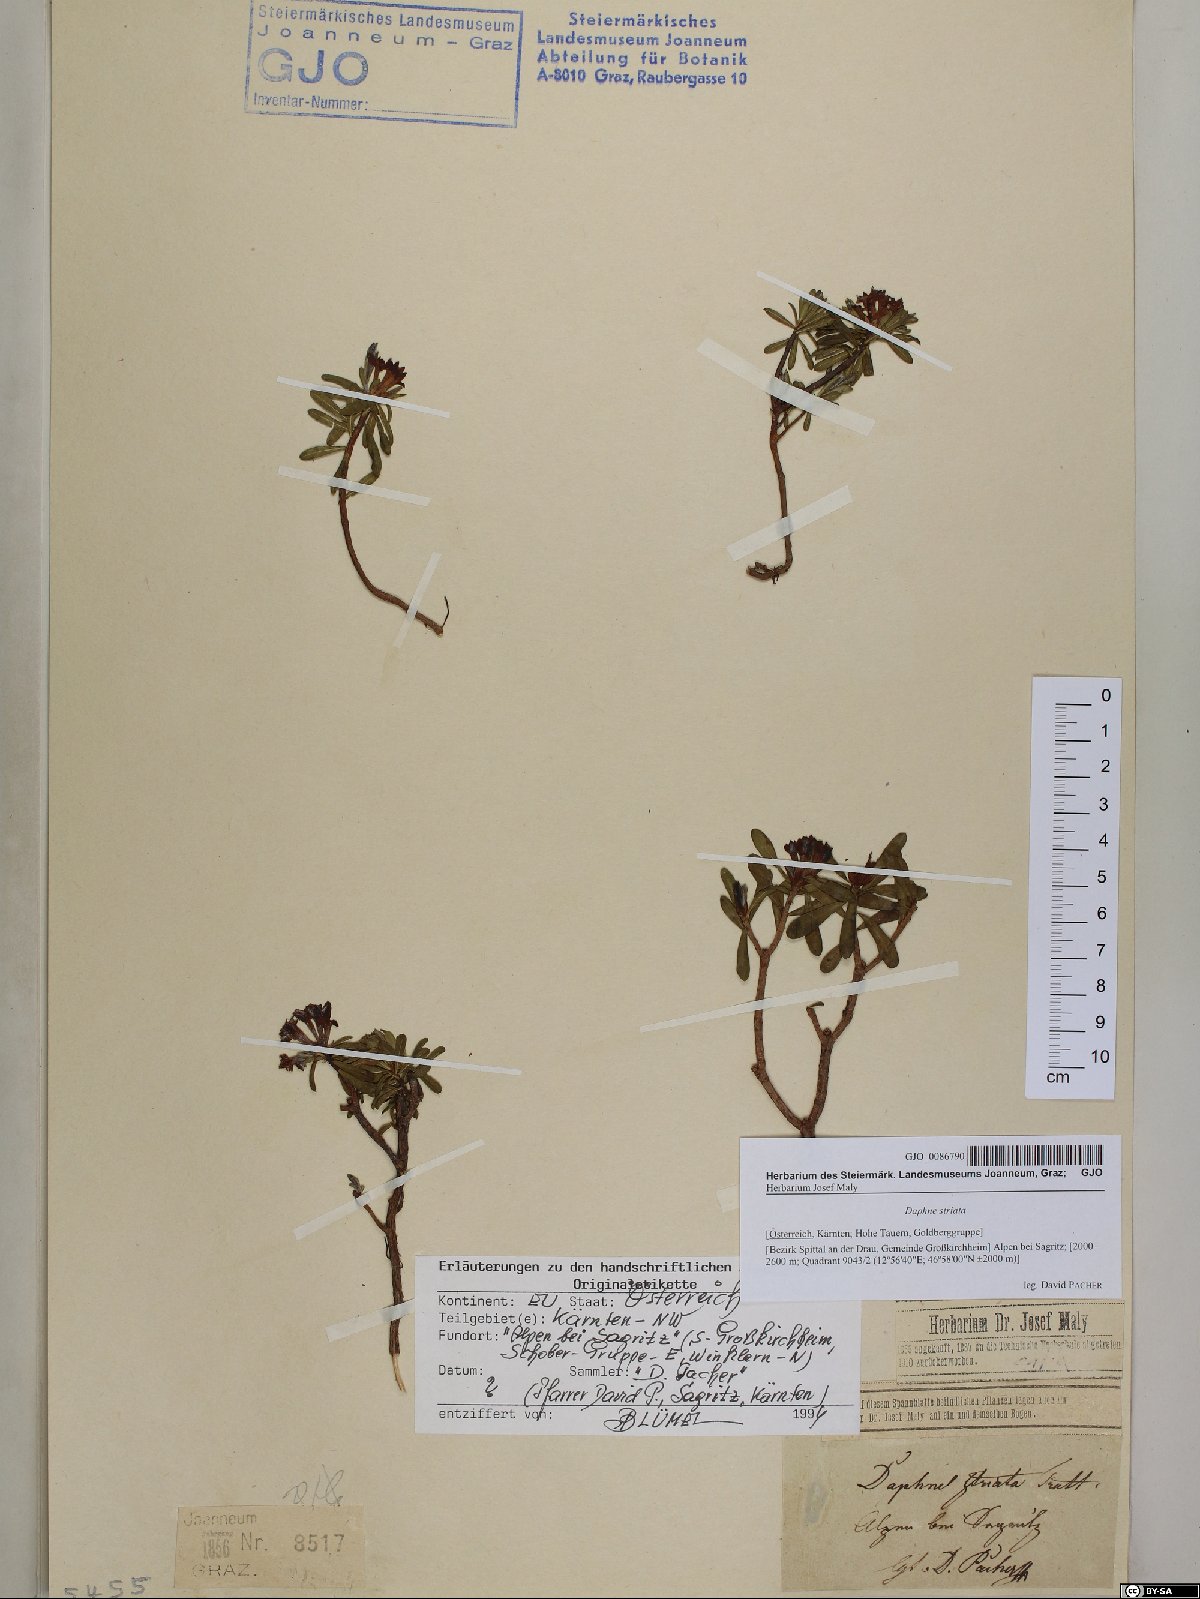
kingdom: Plantae
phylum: Tracheophyta
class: Magnoliopsida
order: Malvales
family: Thymelaeaceae
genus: Daphne
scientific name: Daphne striata
